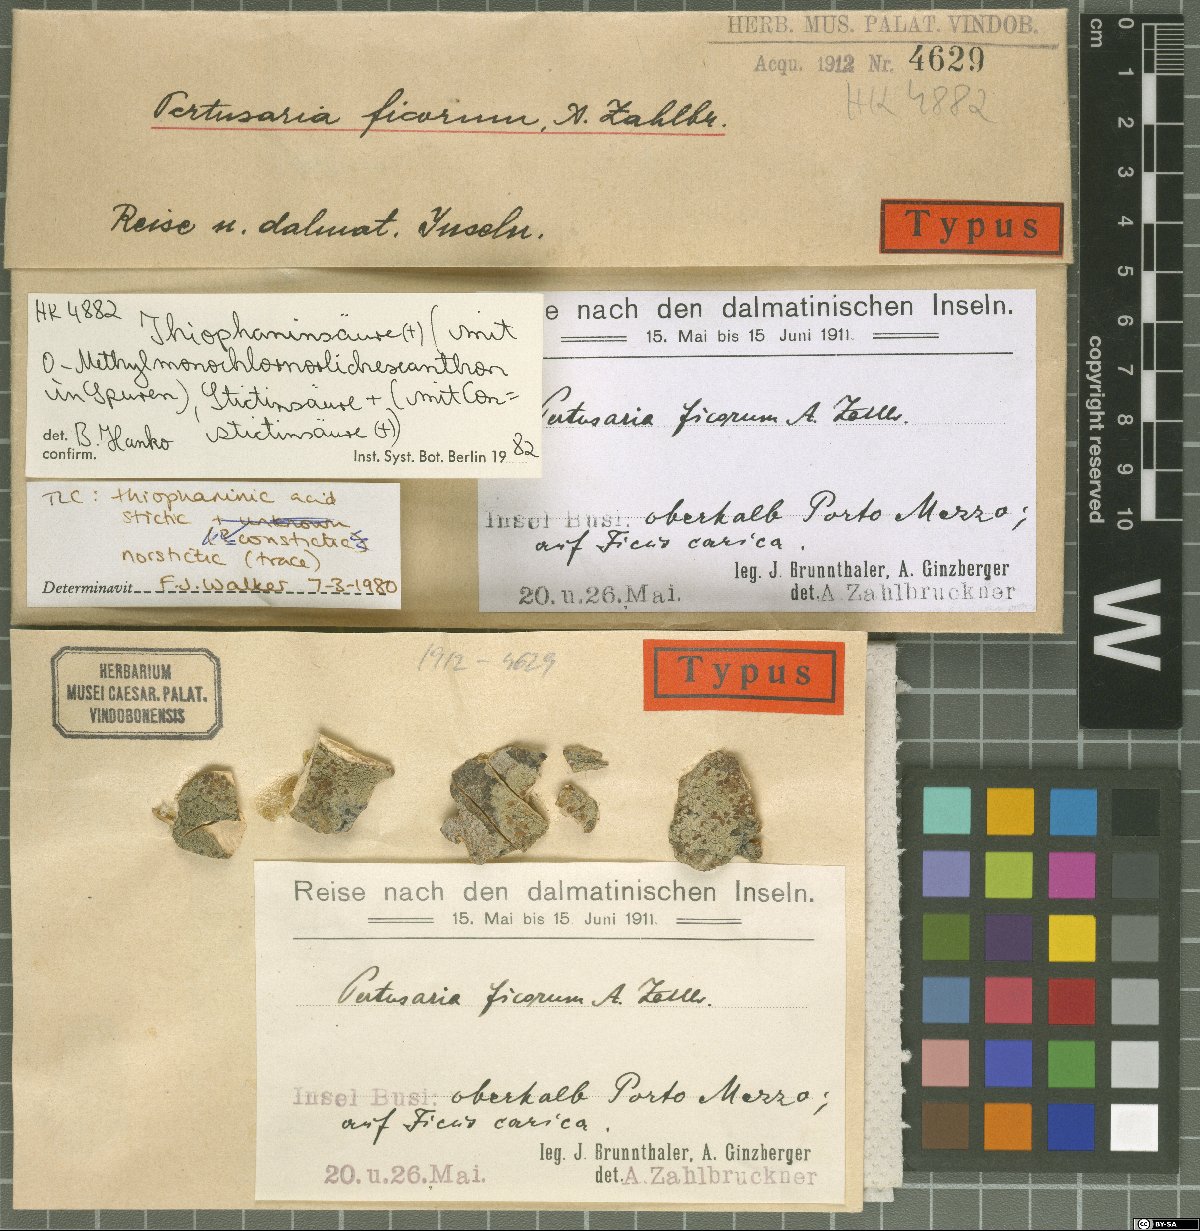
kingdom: Fungi
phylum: Ascomycota
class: Lecanoromycetes
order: Pertusariales
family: Pertusariaceae
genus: Pertusaria
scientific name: Pertusaria ficorum
